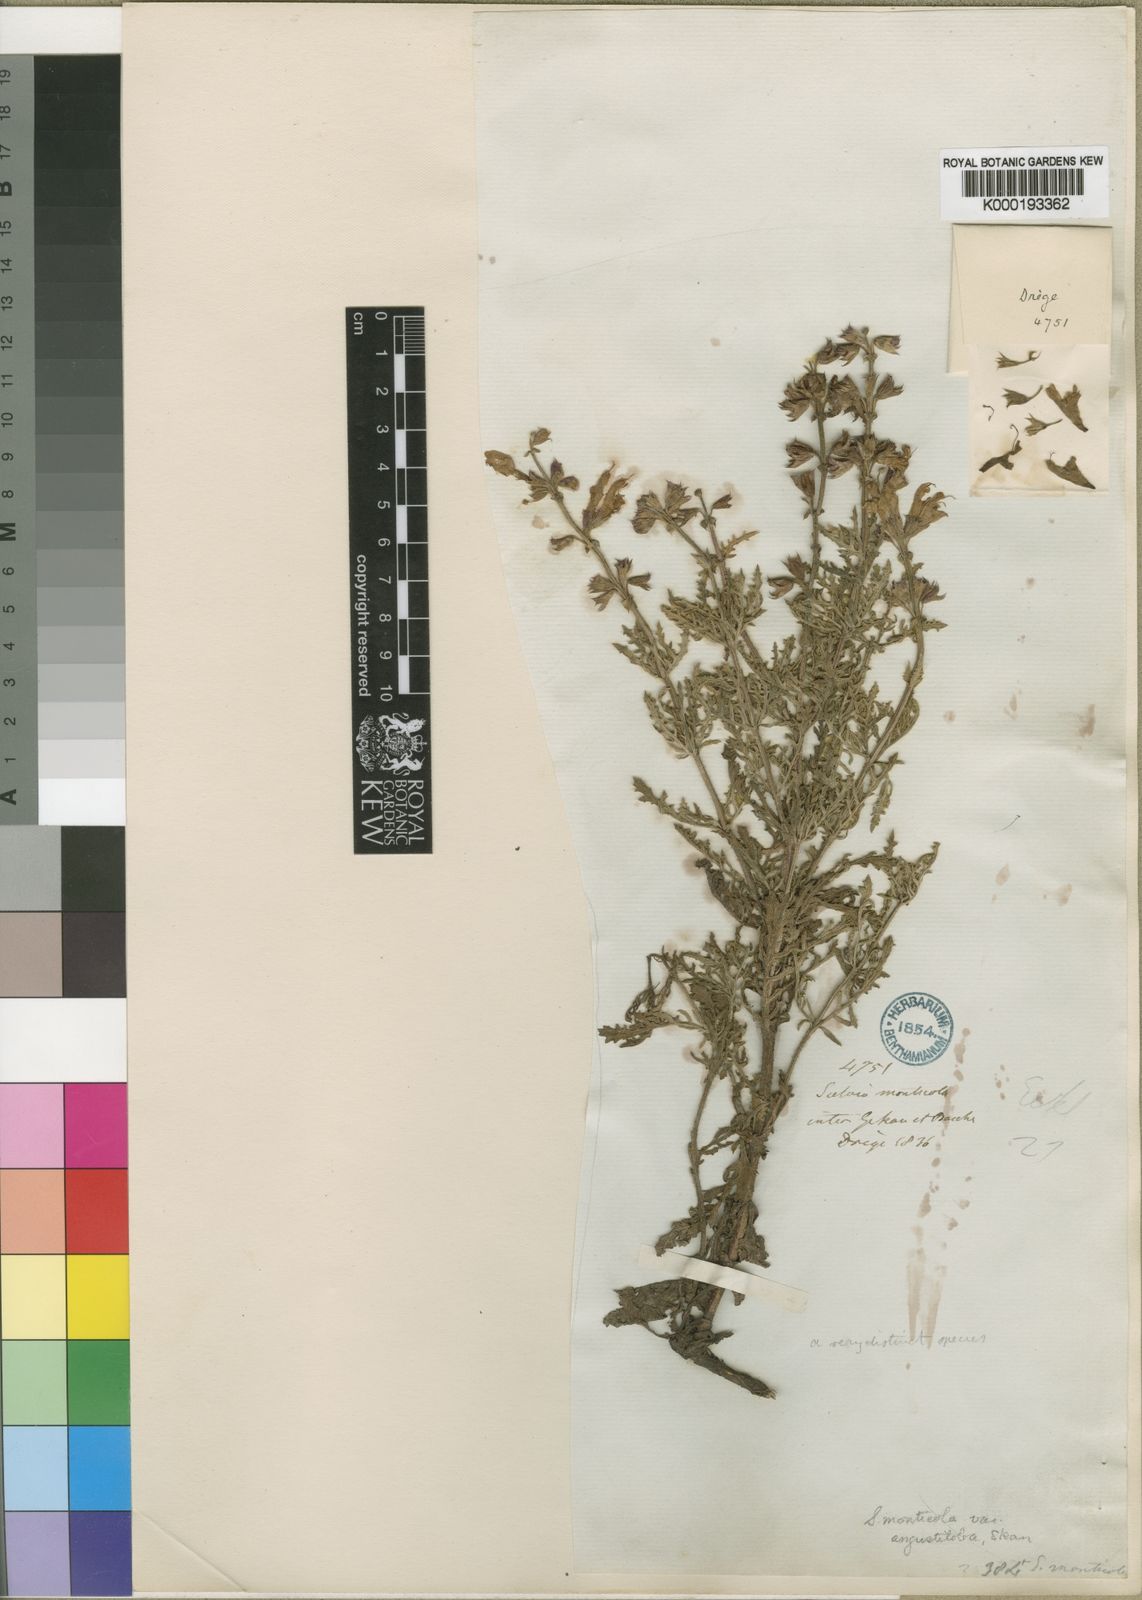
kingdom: Plantae
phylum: Tracheophyta
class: Magnoliopsida
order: Lamiales
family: Lamiaceae
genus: Salvia
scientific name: Salvia runcinata
